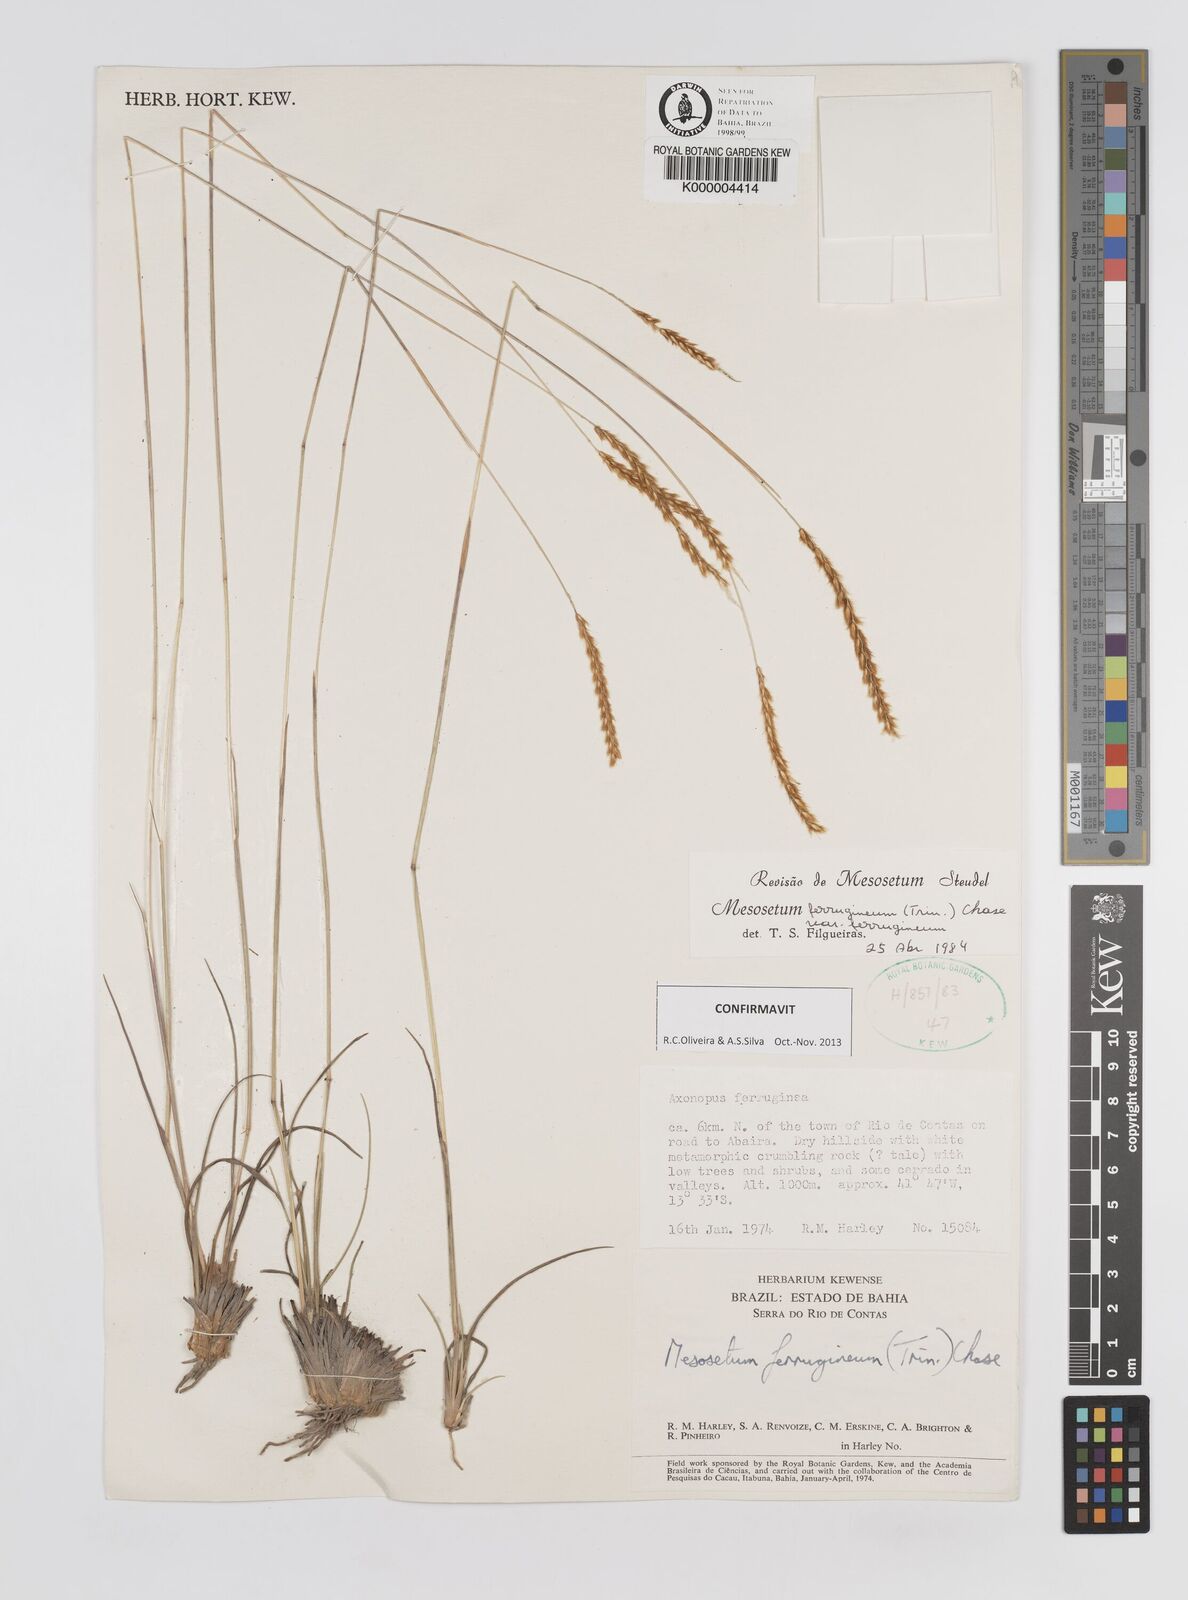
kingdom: Plantae
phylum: Tracheophyta
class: Liliopsida
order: Poales
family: Poaceae
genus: Mesosetum
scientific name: Mesosetum ferrugineum
